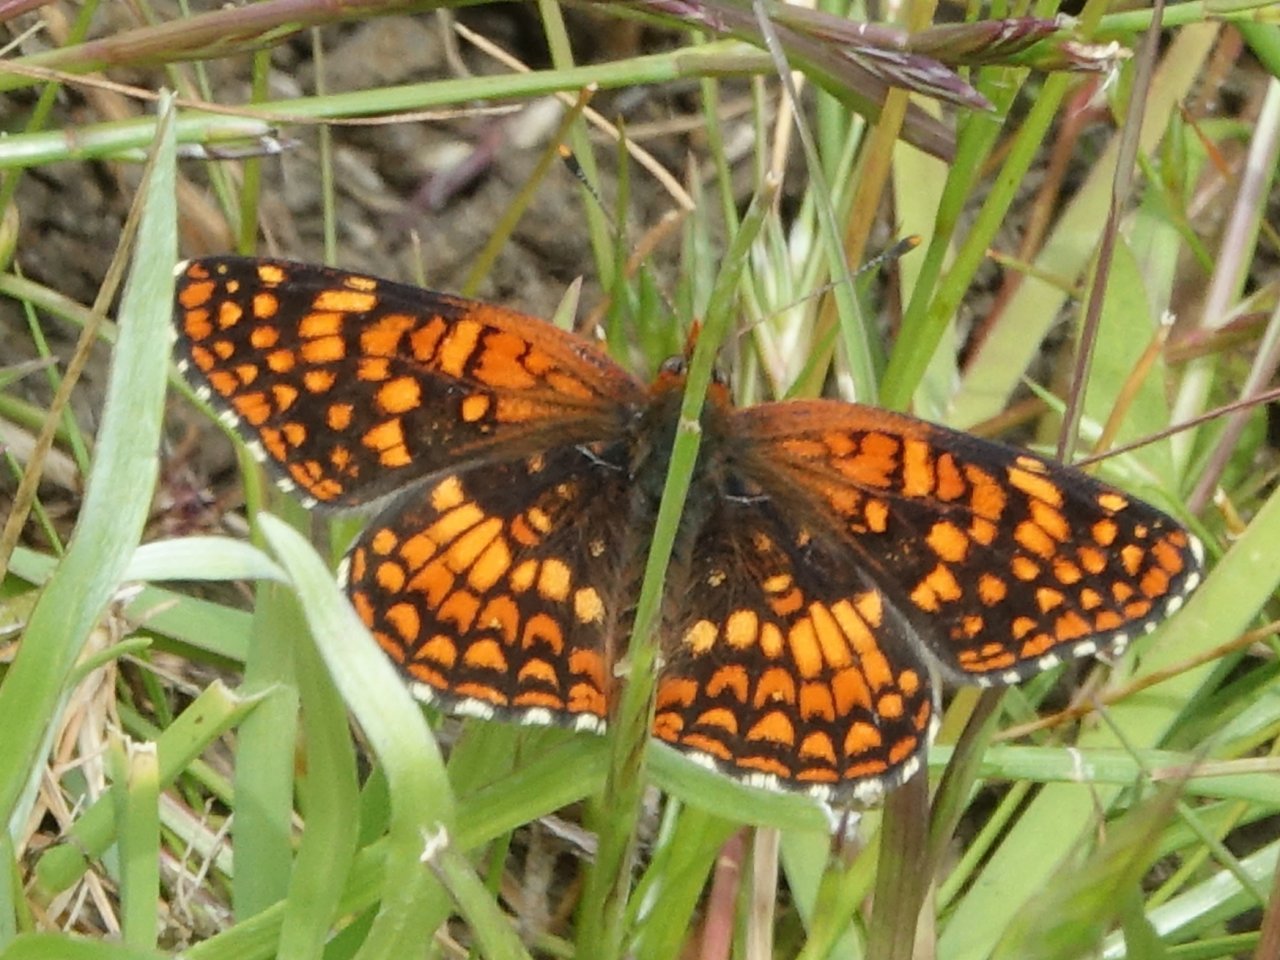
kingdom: Animalia
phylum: Arthropoda
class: Insecta
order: Lepidoptera
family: Nymphalidae
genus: Chlosyne
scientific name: Chlosyne palla
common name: Northern Checkerspot
